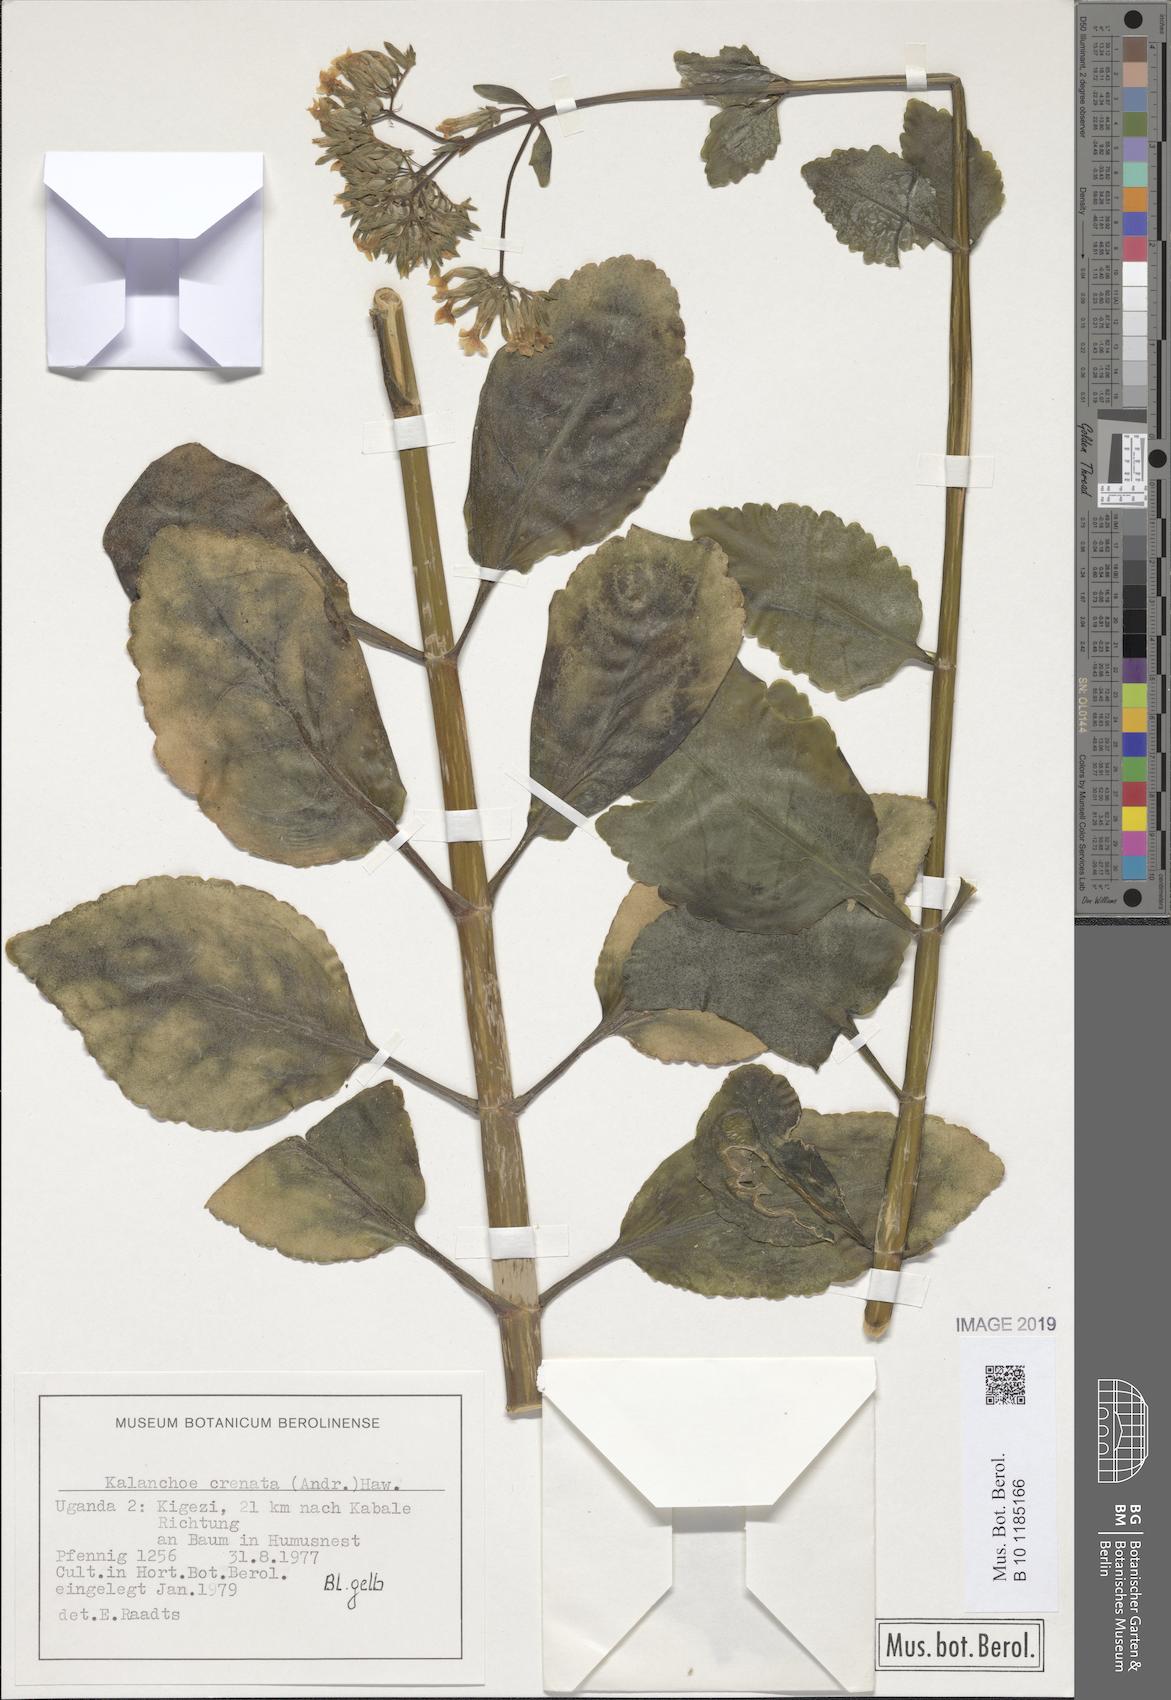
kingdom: Plantae
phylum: Tracheophyta
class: Magnoliopsida
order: Saxifragales
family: Crassulaceae
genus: Kalanchoe
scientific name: Kalanchoe crenata
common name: Neverdie
